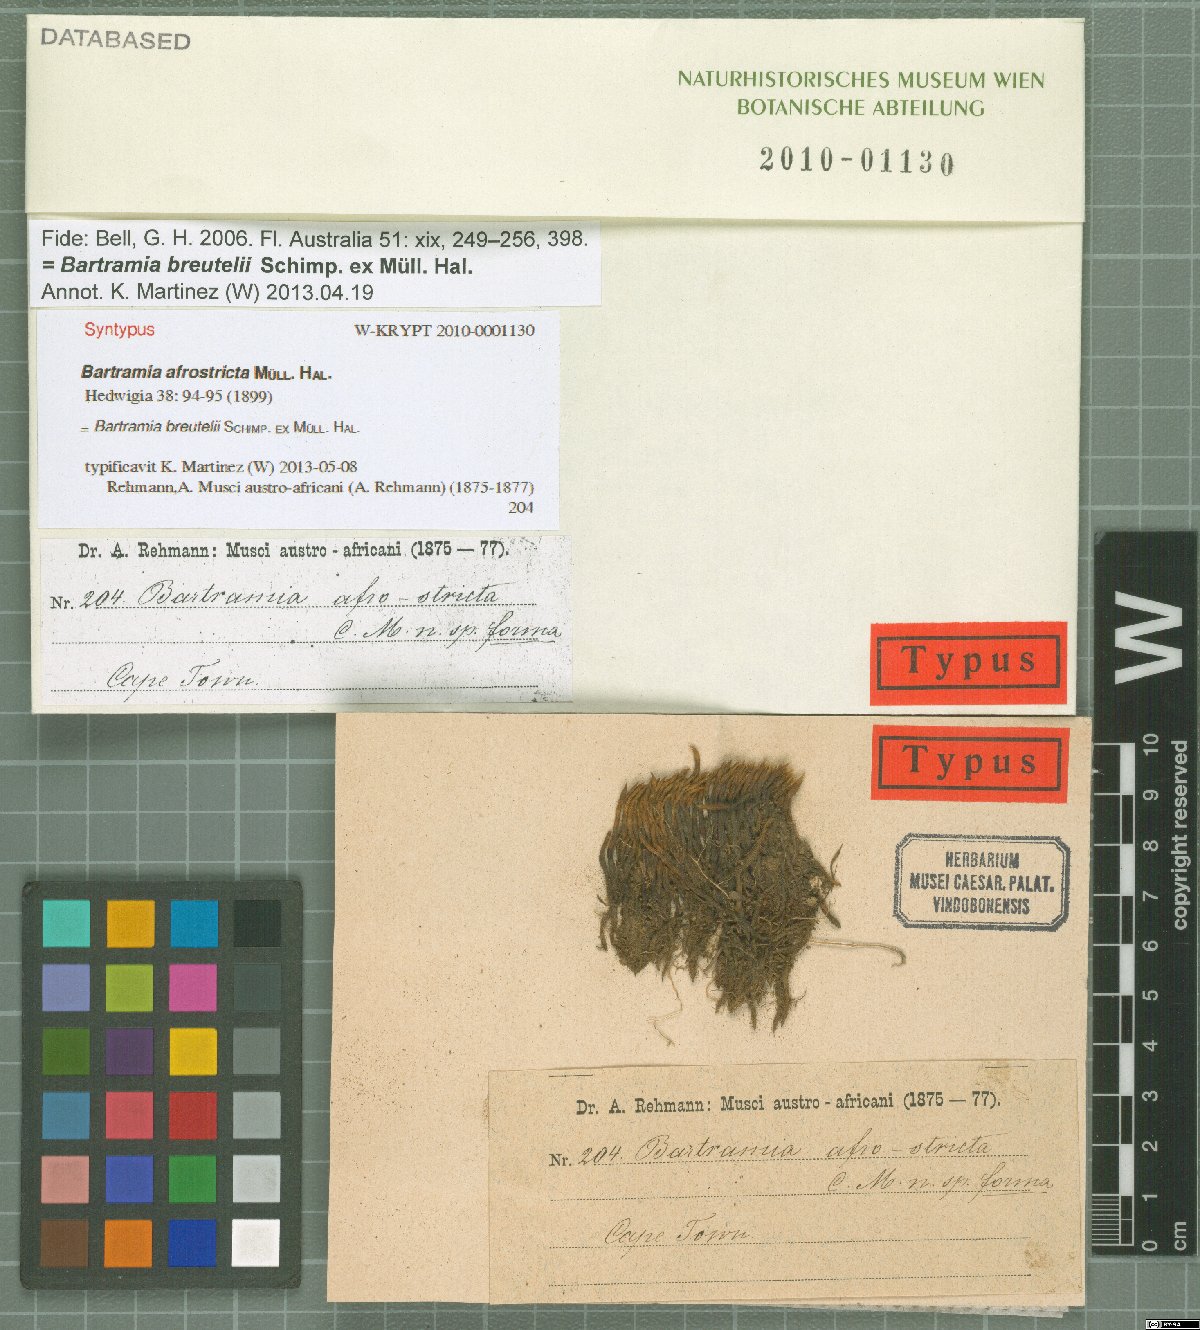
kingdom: Plantae
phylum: Bryophyta
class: Bryopsida
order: Bartramiales
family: Bartramiaceae
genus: Anacolia
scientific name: Anacolia breutelii
